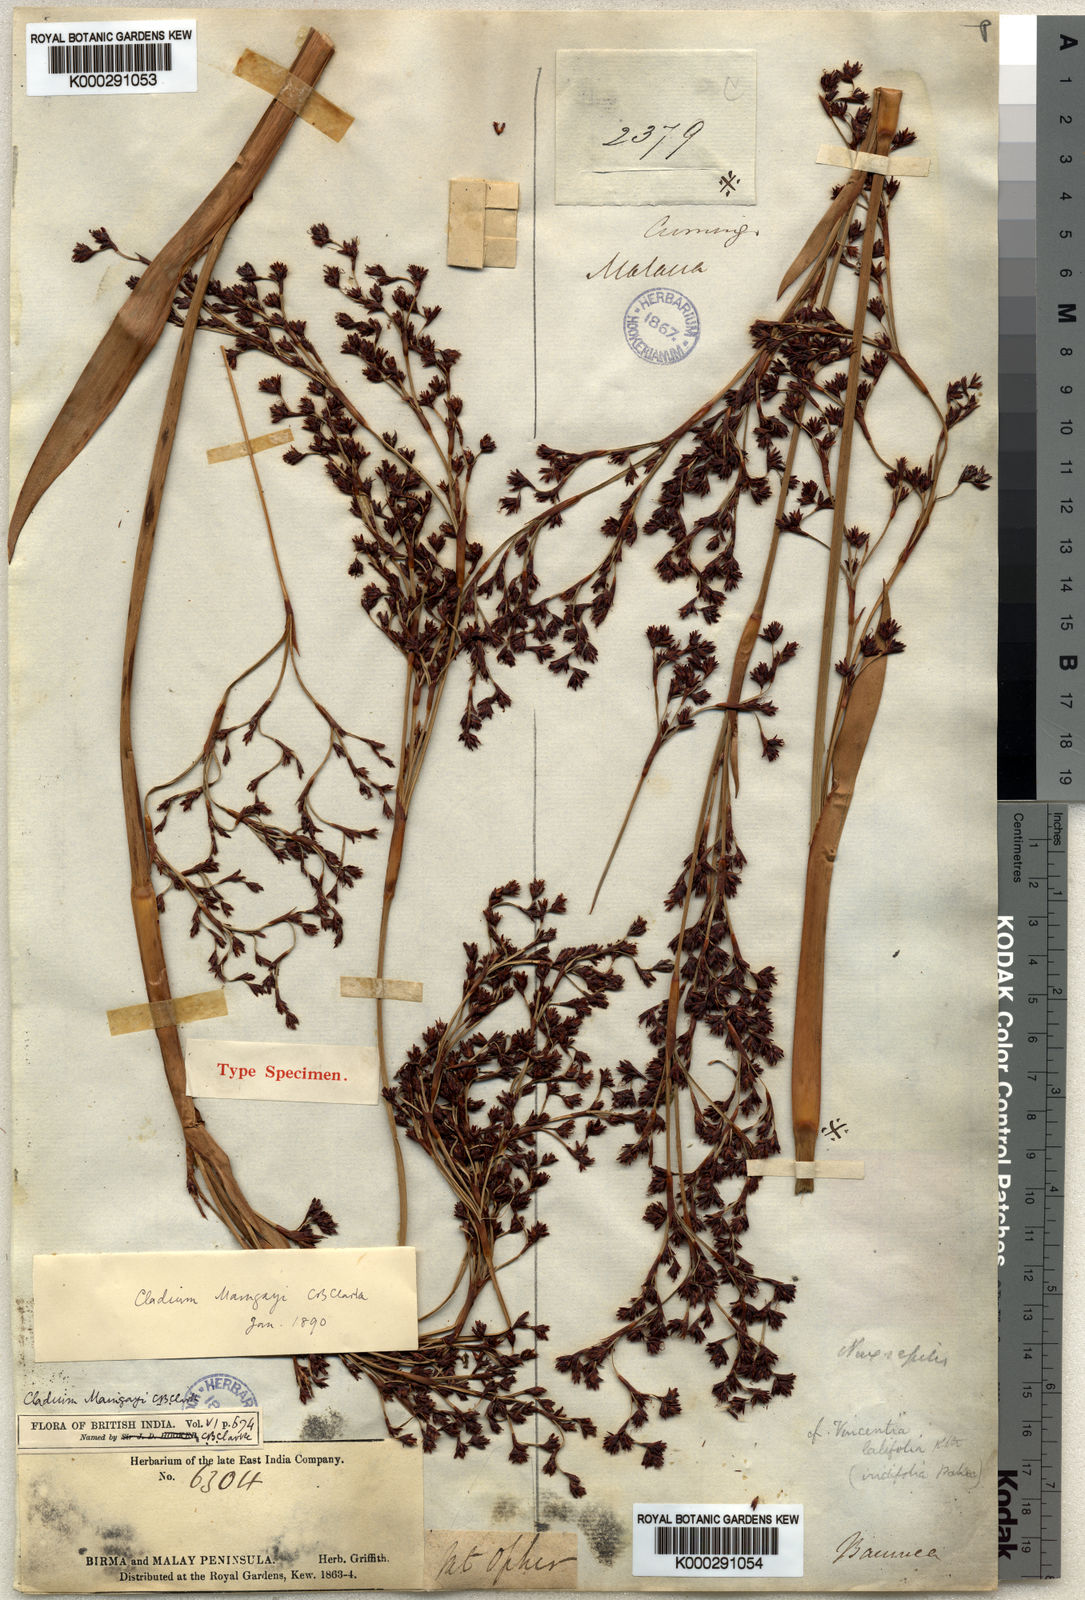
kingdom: Plantae
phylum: Tracheophyta
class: Liliopsida
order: Poales
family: Cyperaceae
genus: Machaerina
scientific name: Machaerina maingayi
